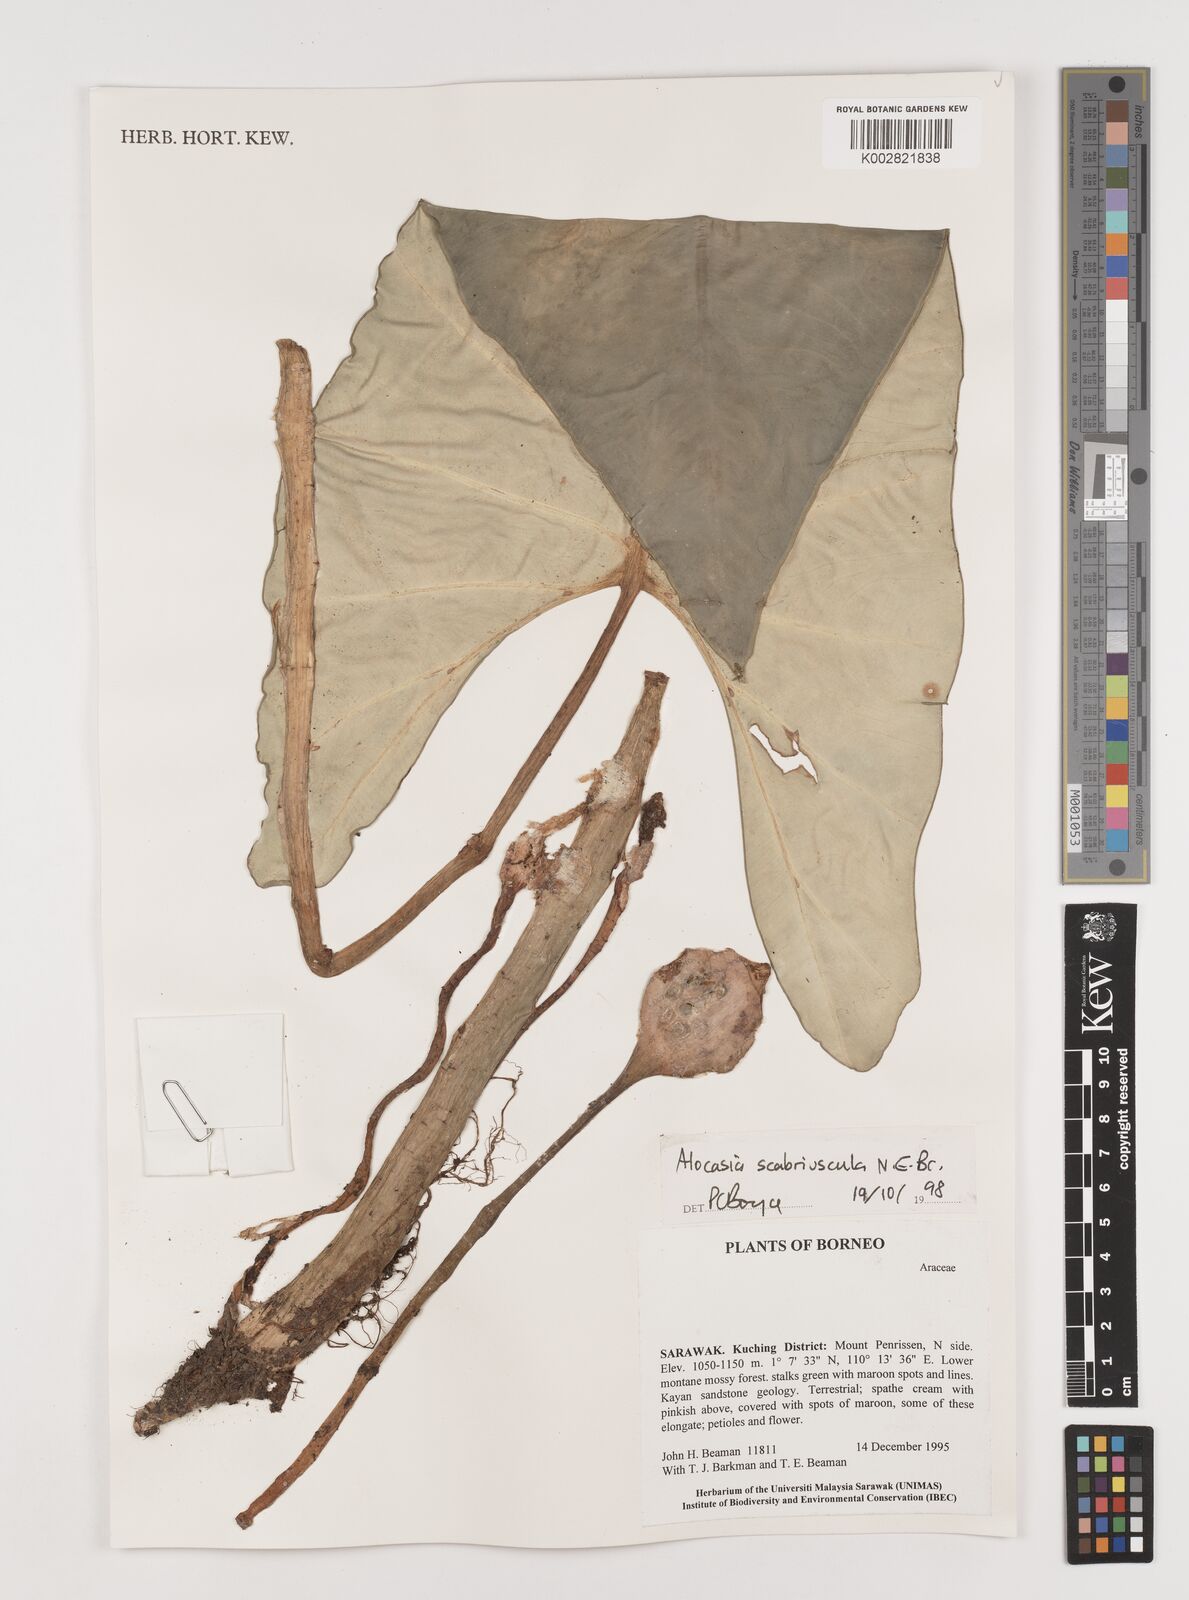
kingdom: Plantae
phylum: Tracheophyta
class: Liliopsida
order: Alismatales
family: Araceae
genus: Alocasia
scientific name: Alocasia scabriuscula
